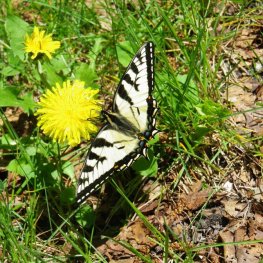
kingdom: Animalia
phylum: Arthropoda
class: Insecta
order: Lepidoptera
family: Papilionidae
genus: Pterourus
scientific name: Pterourus canadensis
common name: Canadian Tiger Swallowtail
